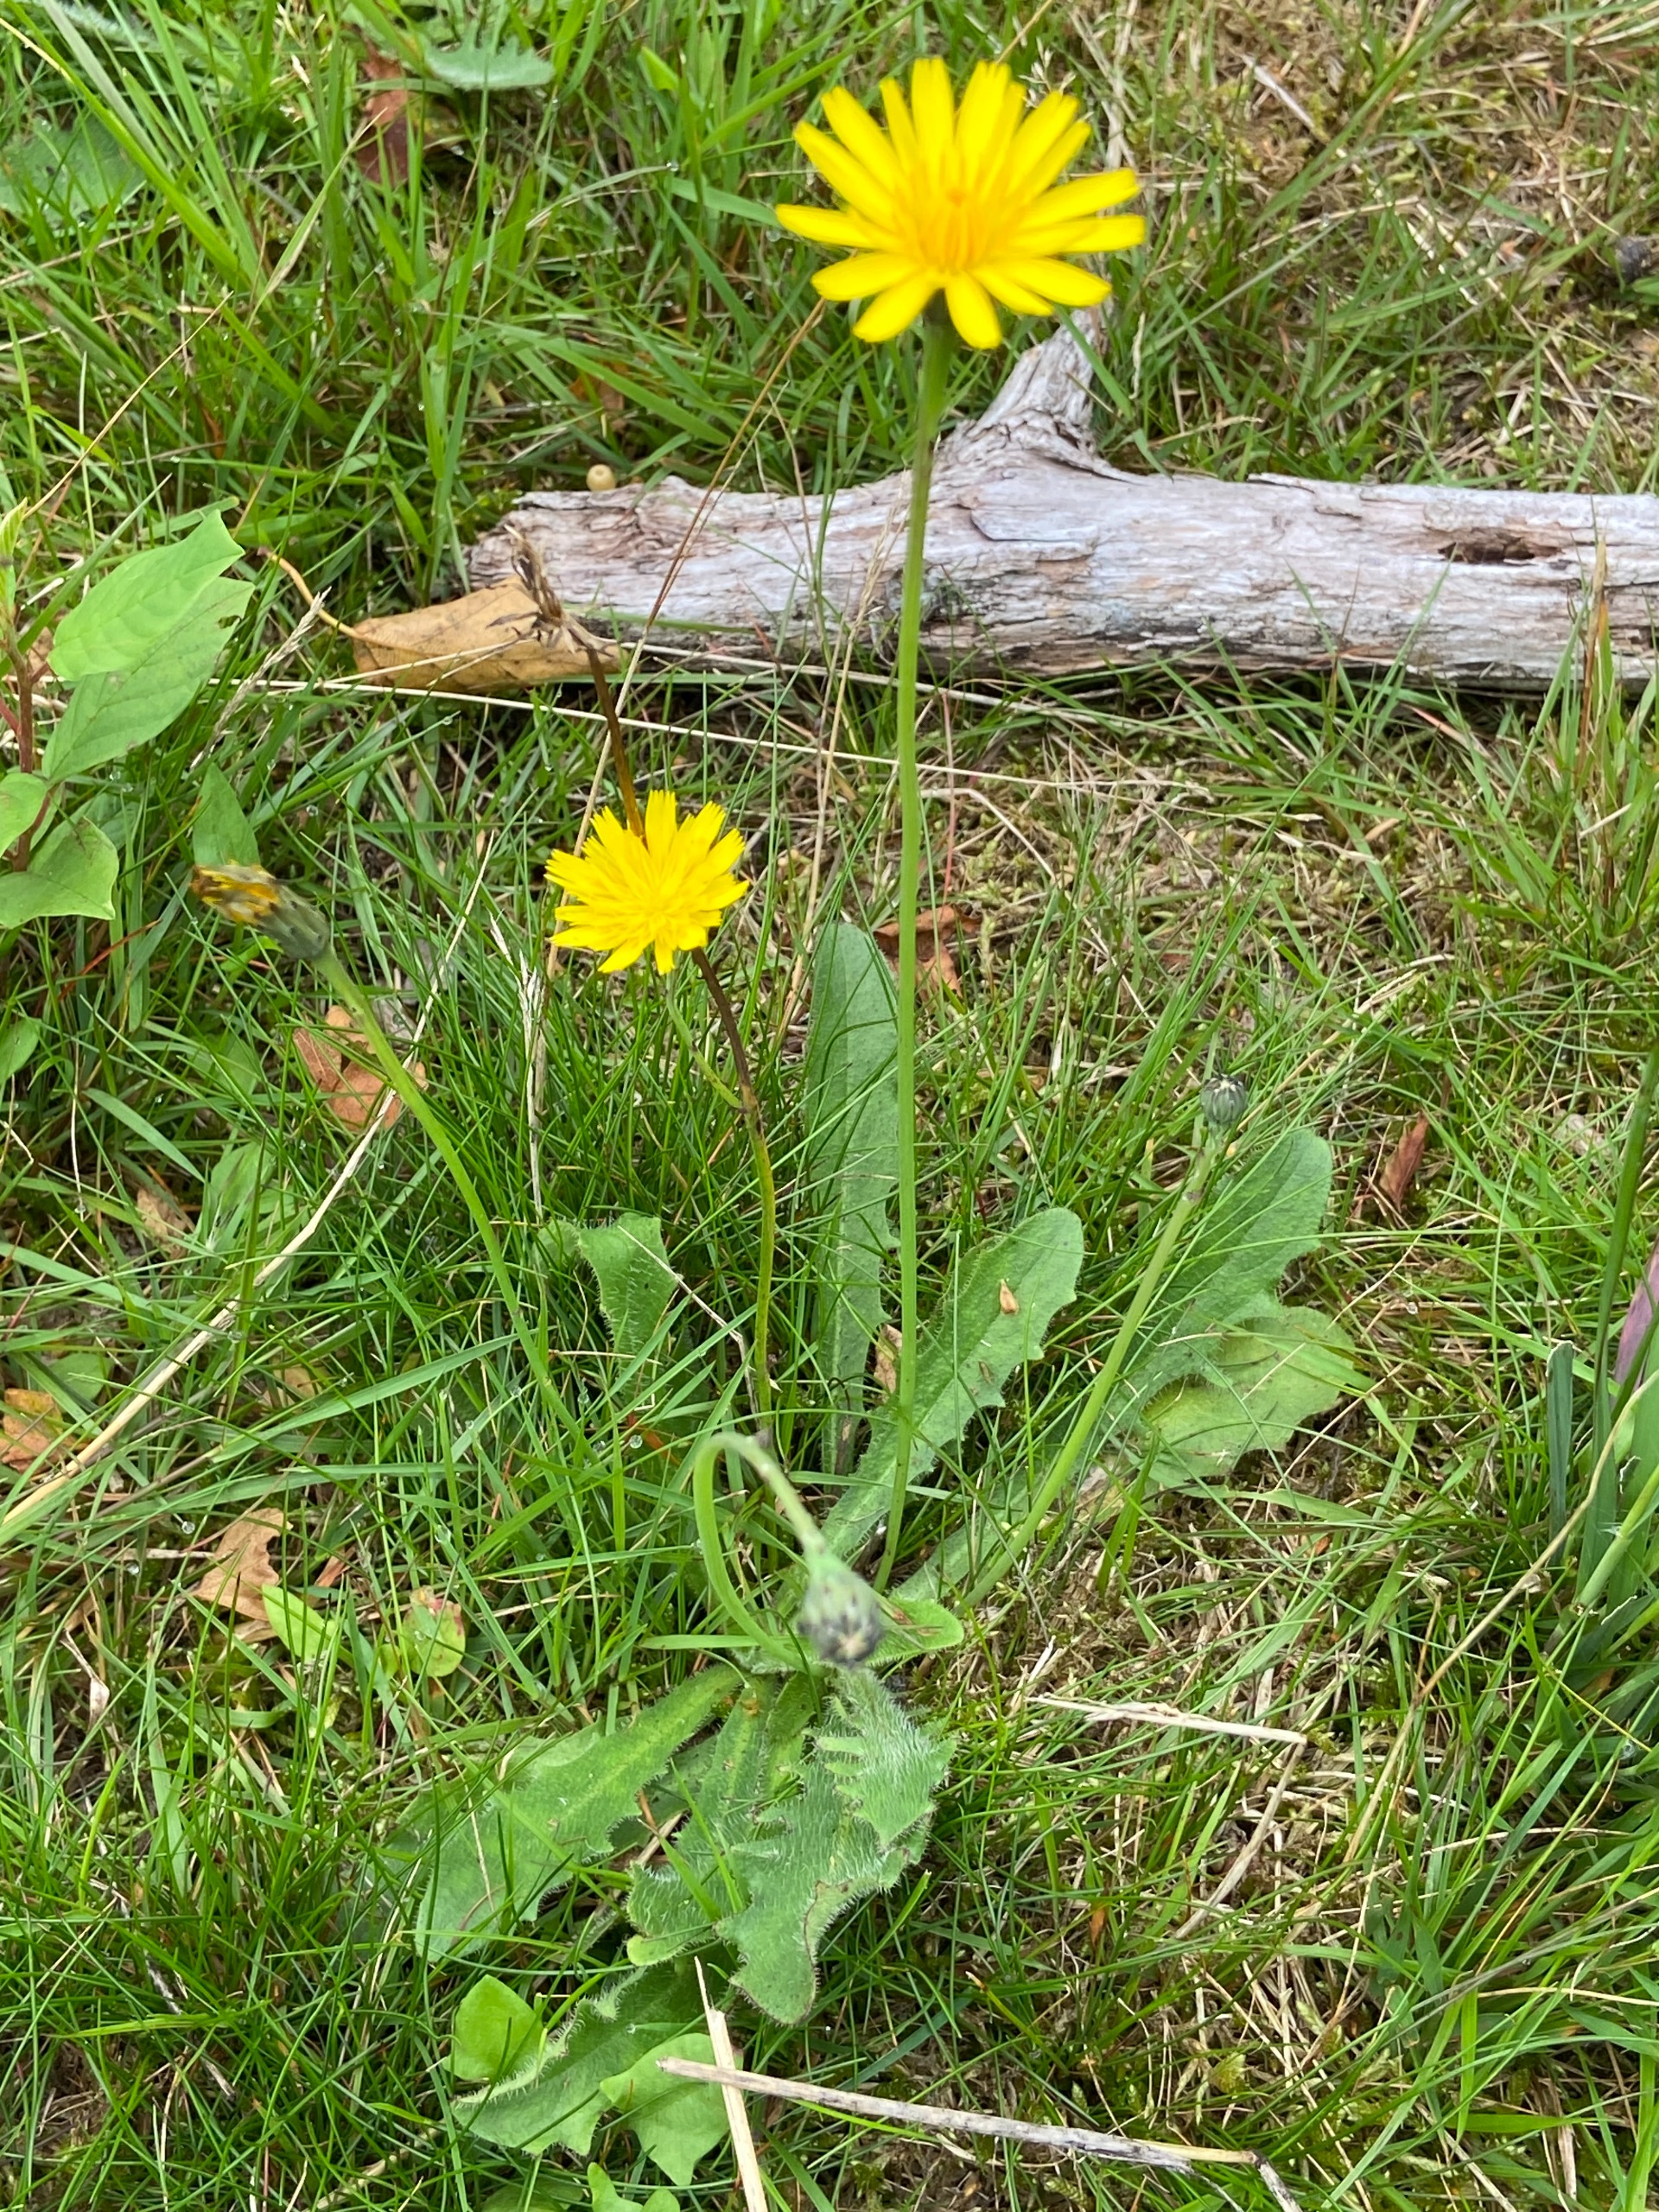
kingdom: Plantae
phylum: Tracheophyta
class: Magnoliopsida
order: Asterales
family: Asteraceae
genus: Hypochaeris
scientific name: Hypochaeris radicata
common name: Almindelig kongepen
